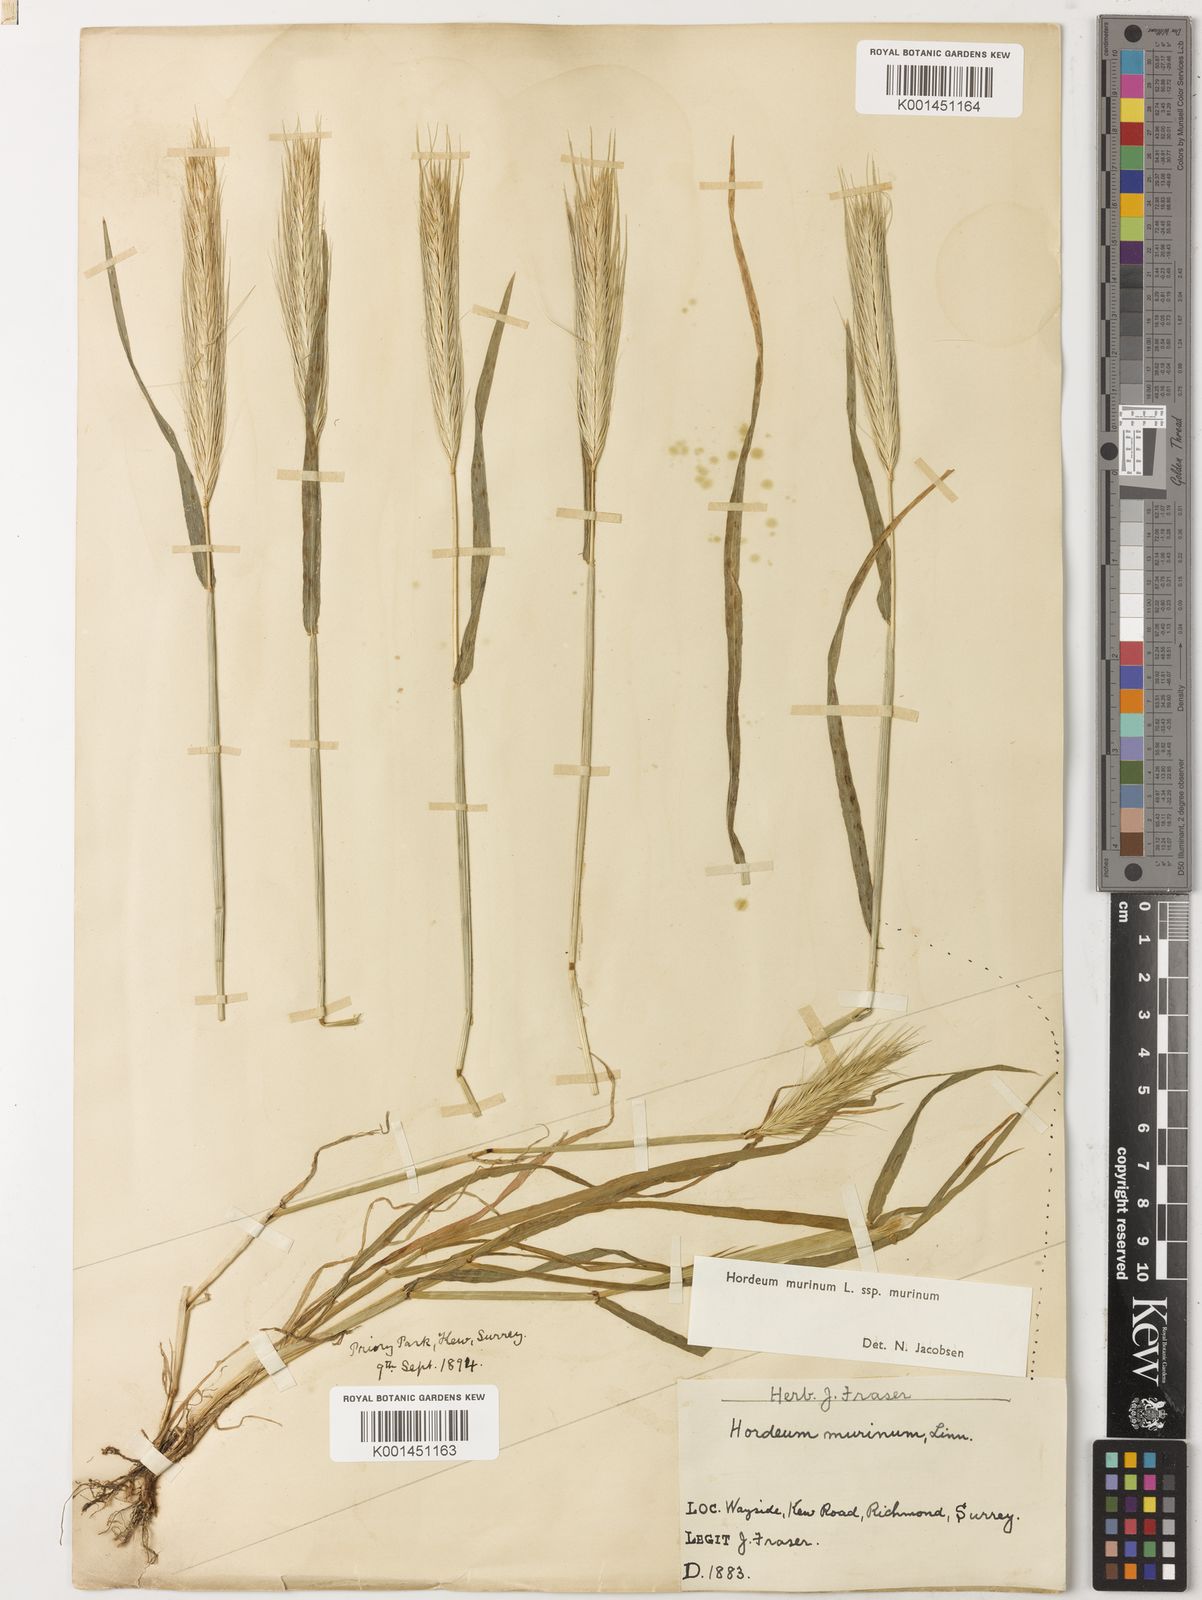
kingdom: Plantae
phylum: Tracheophyta
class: Liliopsida
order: Poales
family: Poaceae
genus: Hordeum
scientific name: Hordeum murinum
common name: Wall barley
